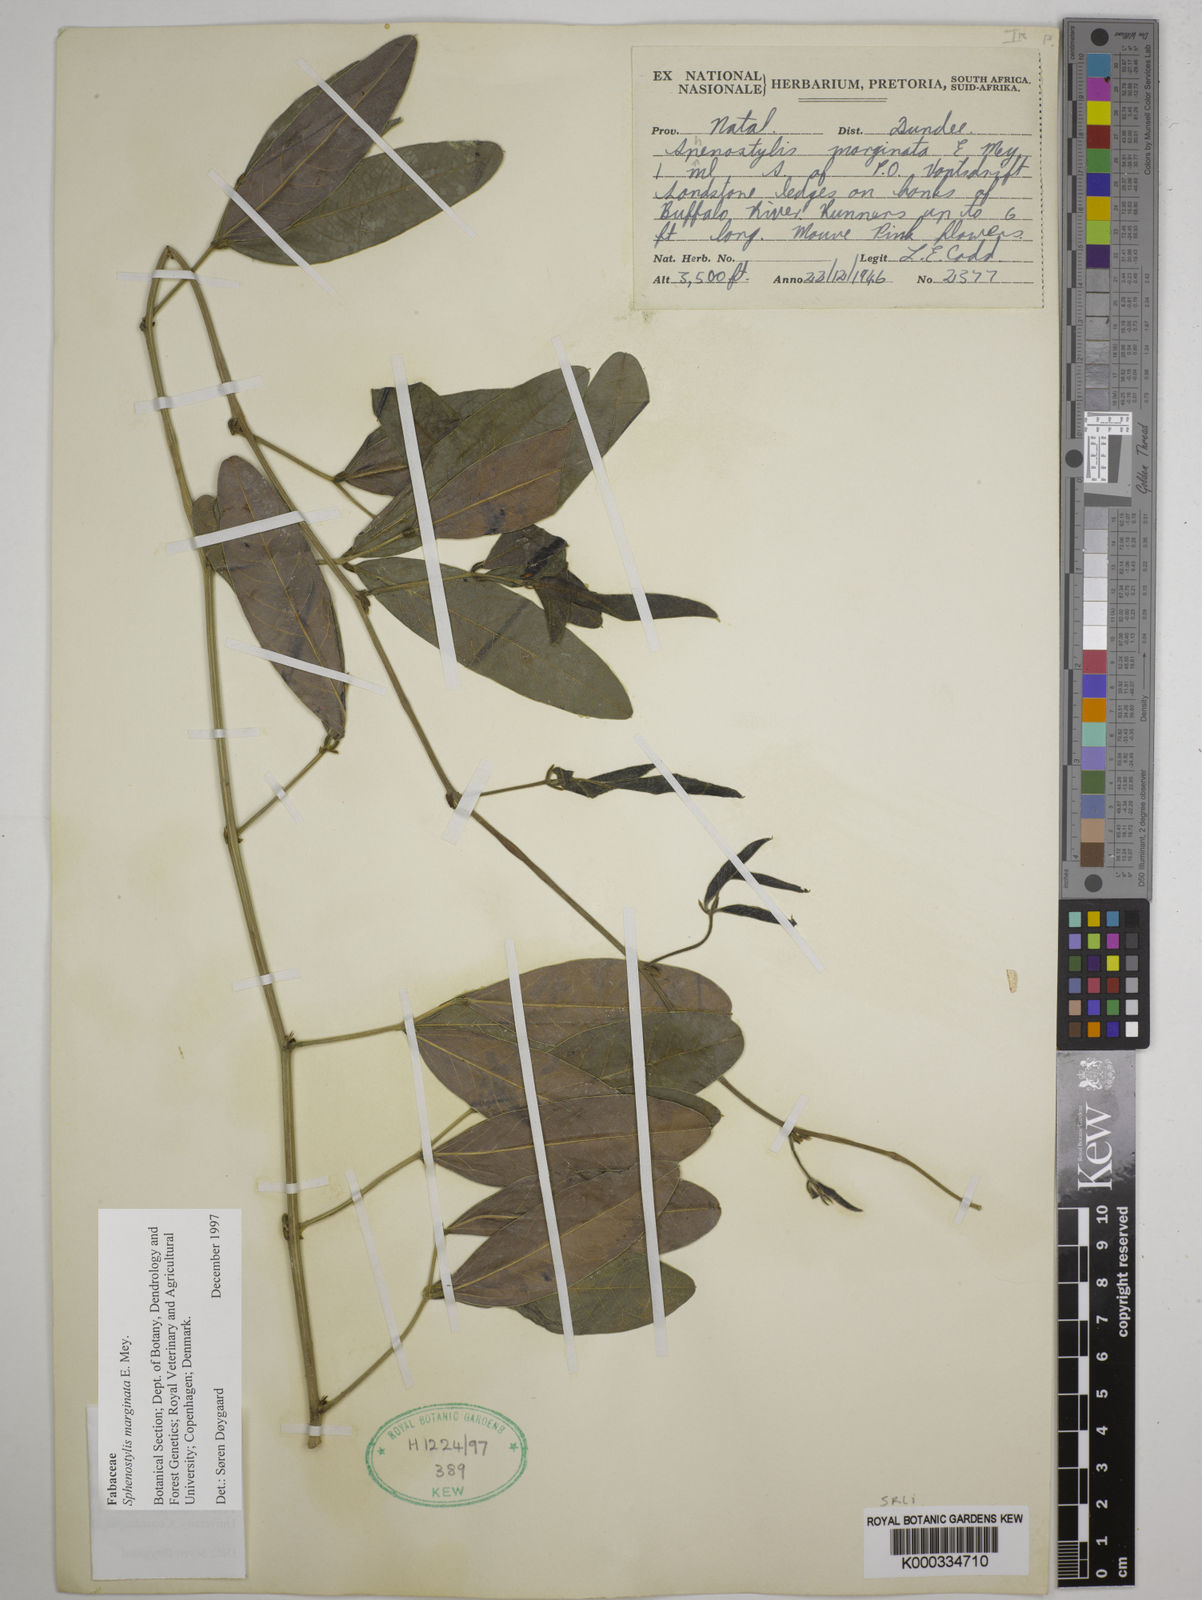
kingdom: Plantae
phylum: Tracheophyta
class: Magnoliopsida
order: Fabales
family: Fabaceae
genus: Sphenostylis
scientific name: Sphenostylis marginata
